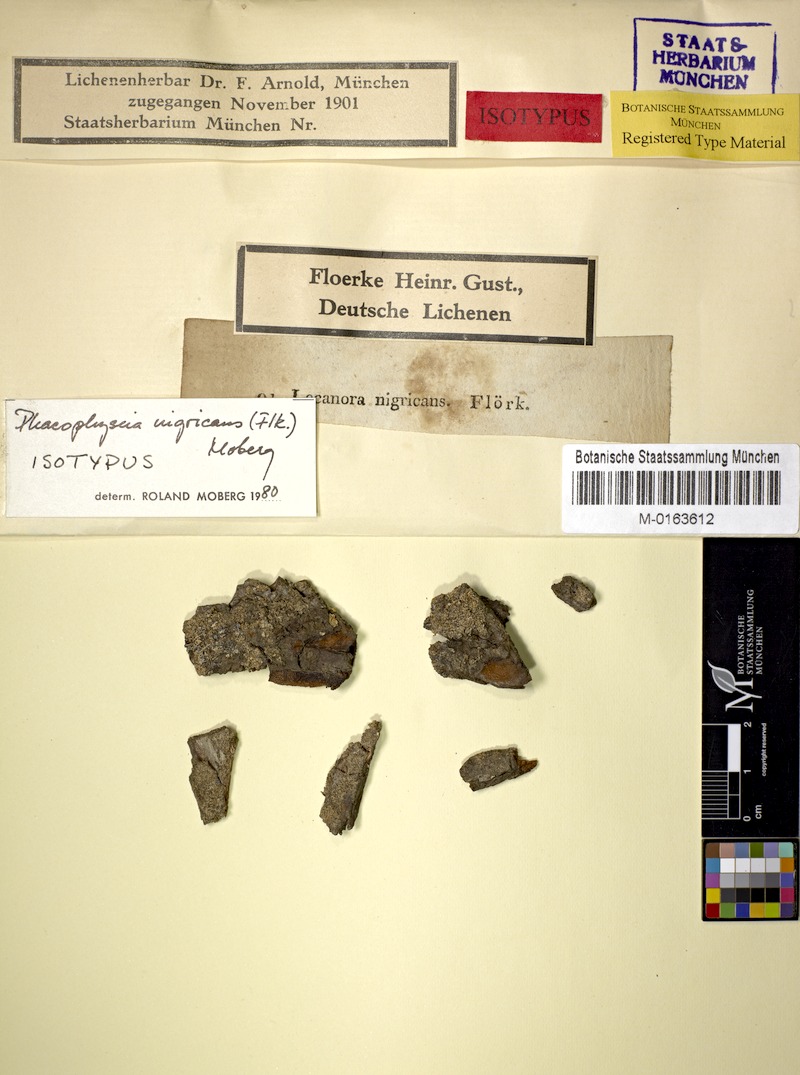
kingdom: Fungi
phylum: Ascomycota
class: Lecanoromycetes
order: Caliciales
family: Physciaceae
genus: Physciella
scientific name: Physciella nigricans
